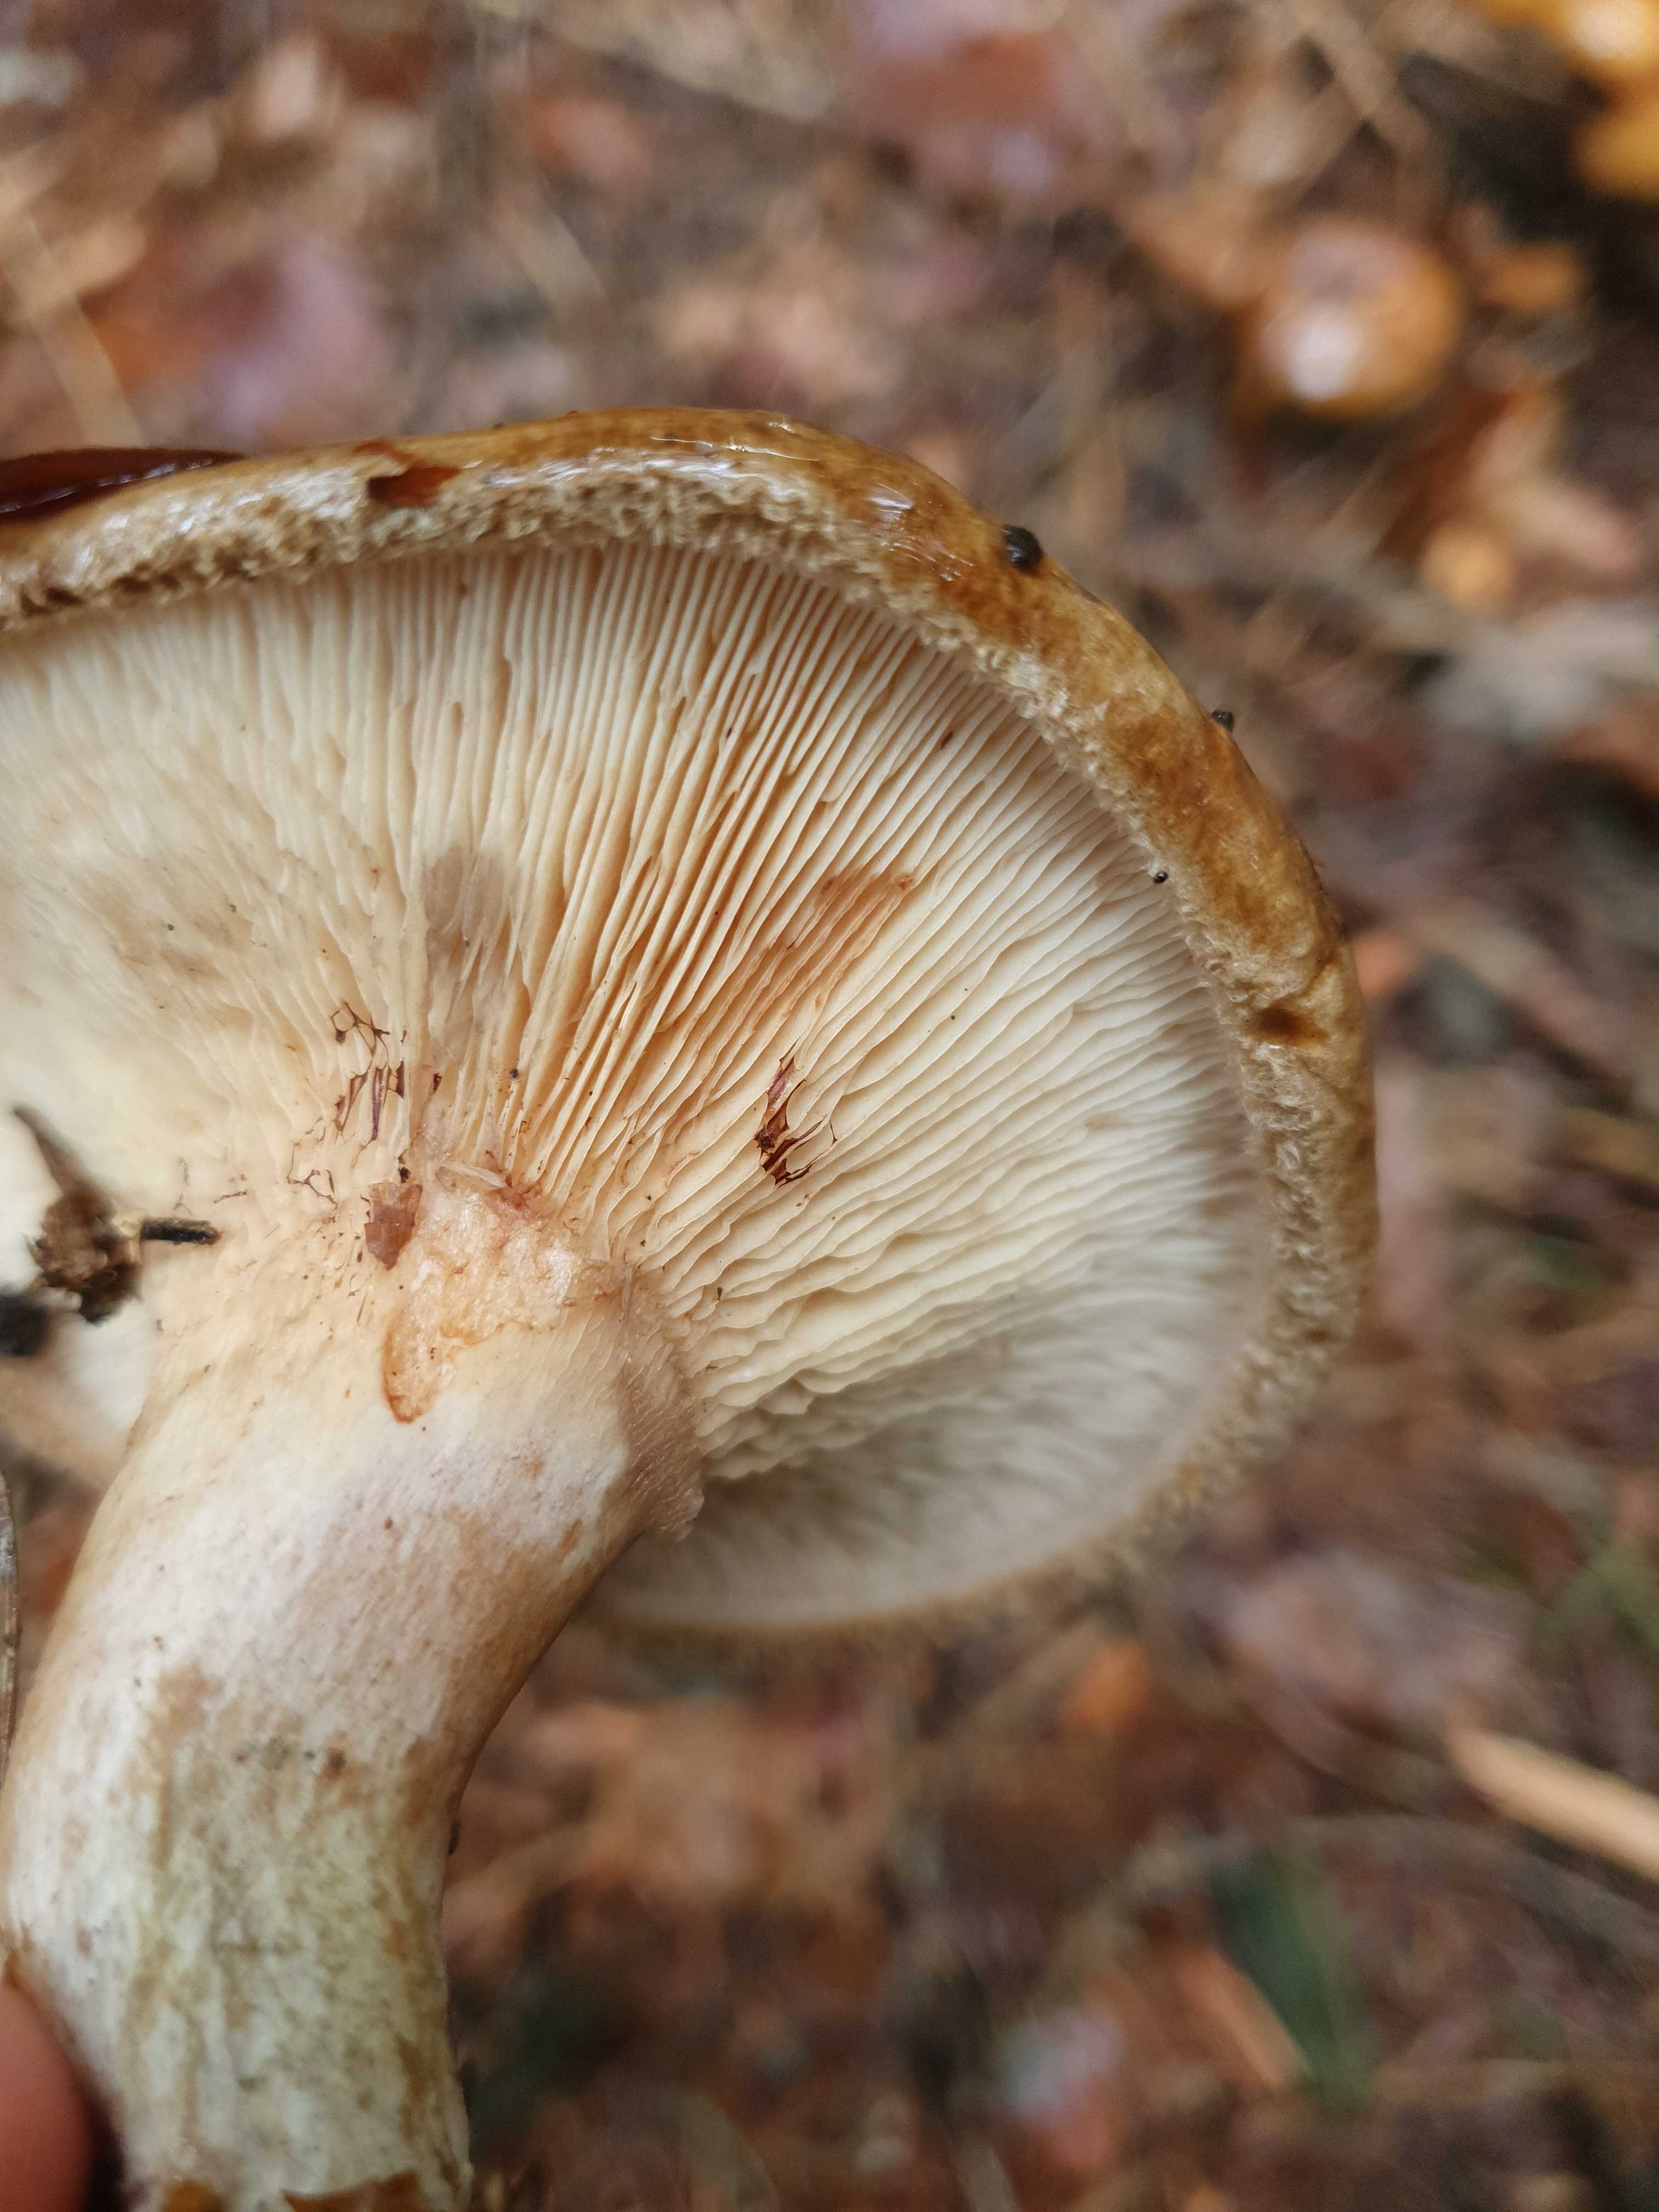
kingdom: Fungi
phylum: Basidiomycota
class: Agaricomycetes
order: Boletales
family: Paxillaceae
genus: Paxillus
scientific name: Paxillus involutus
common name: almindelig netbladhat
